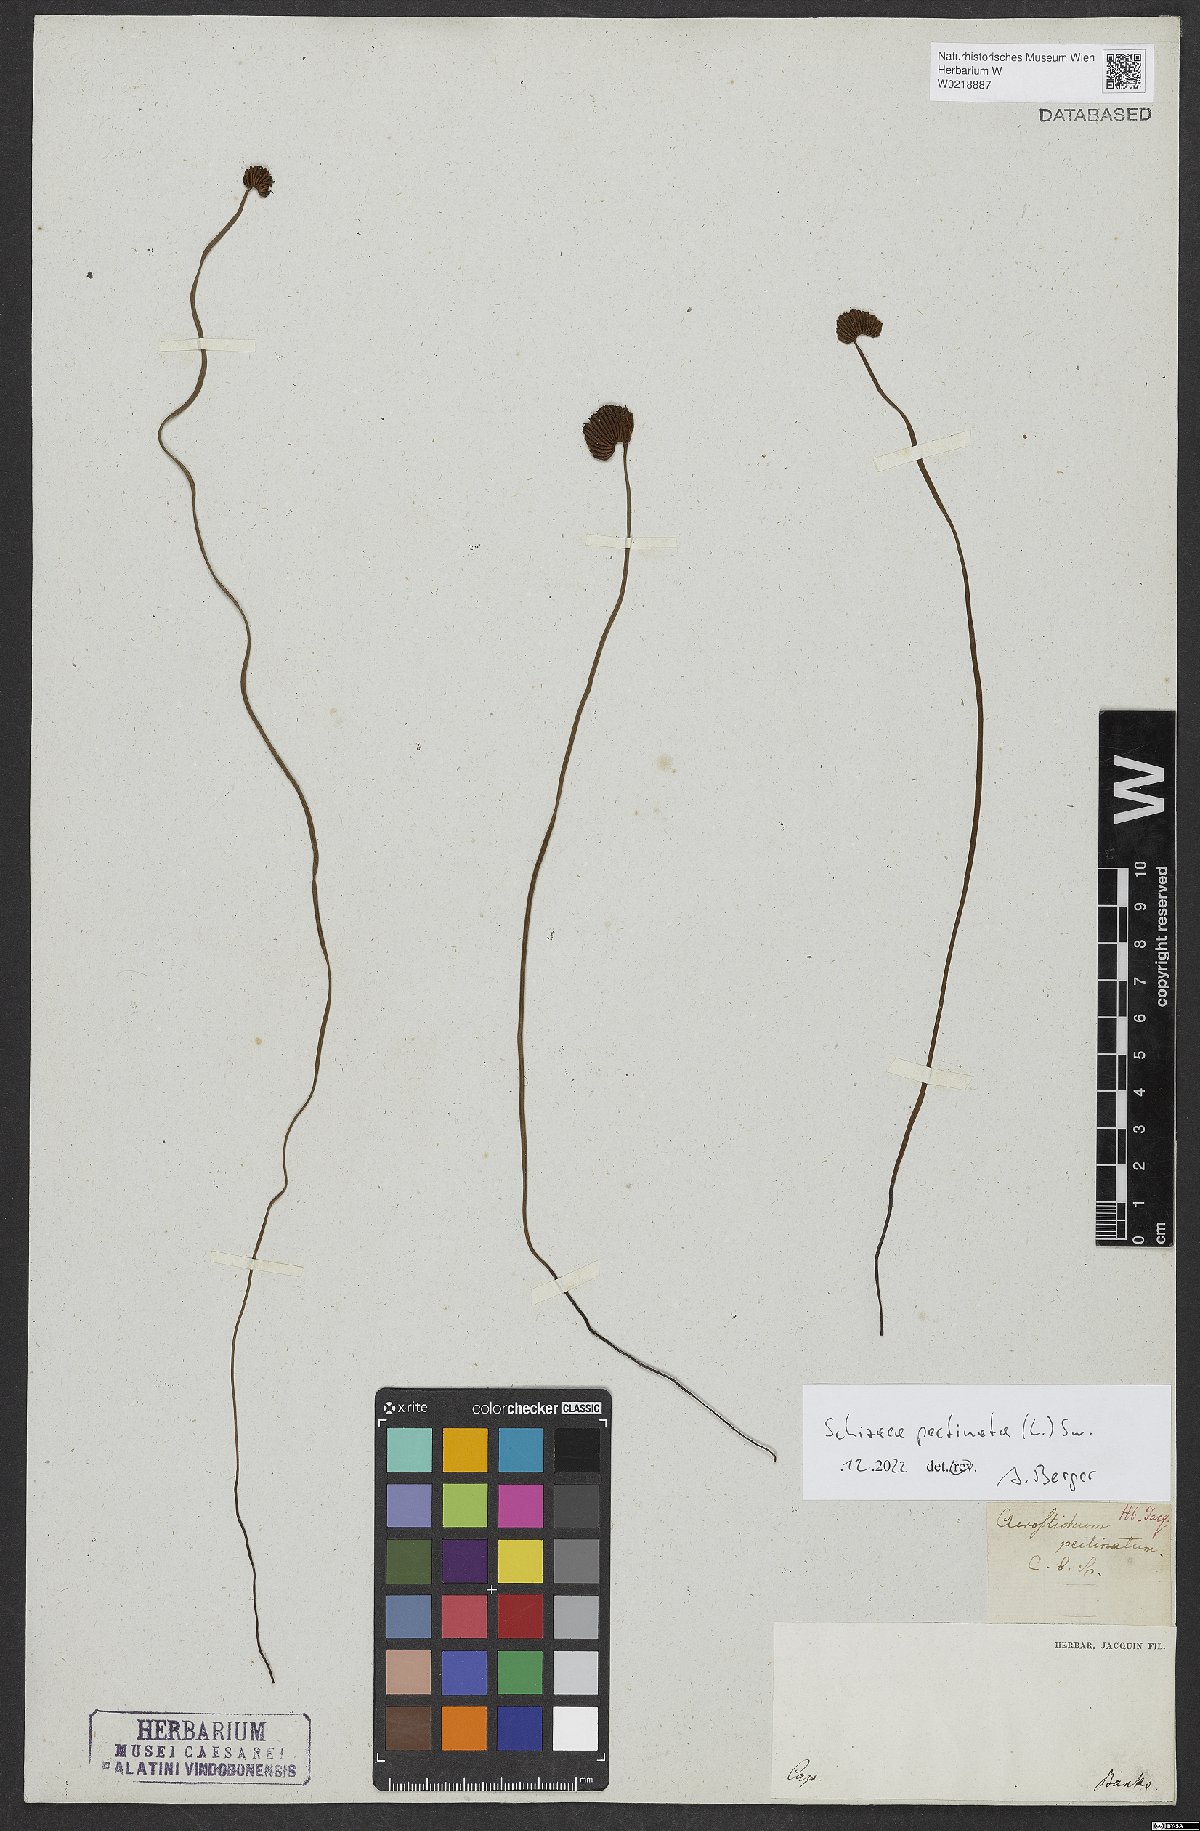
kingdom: Plantae
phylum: Tracheophyta
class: Polypodiopsida
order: Schizaeales
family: Schizaeaceae
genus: Schizaea
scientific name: Schizaea pectinata
